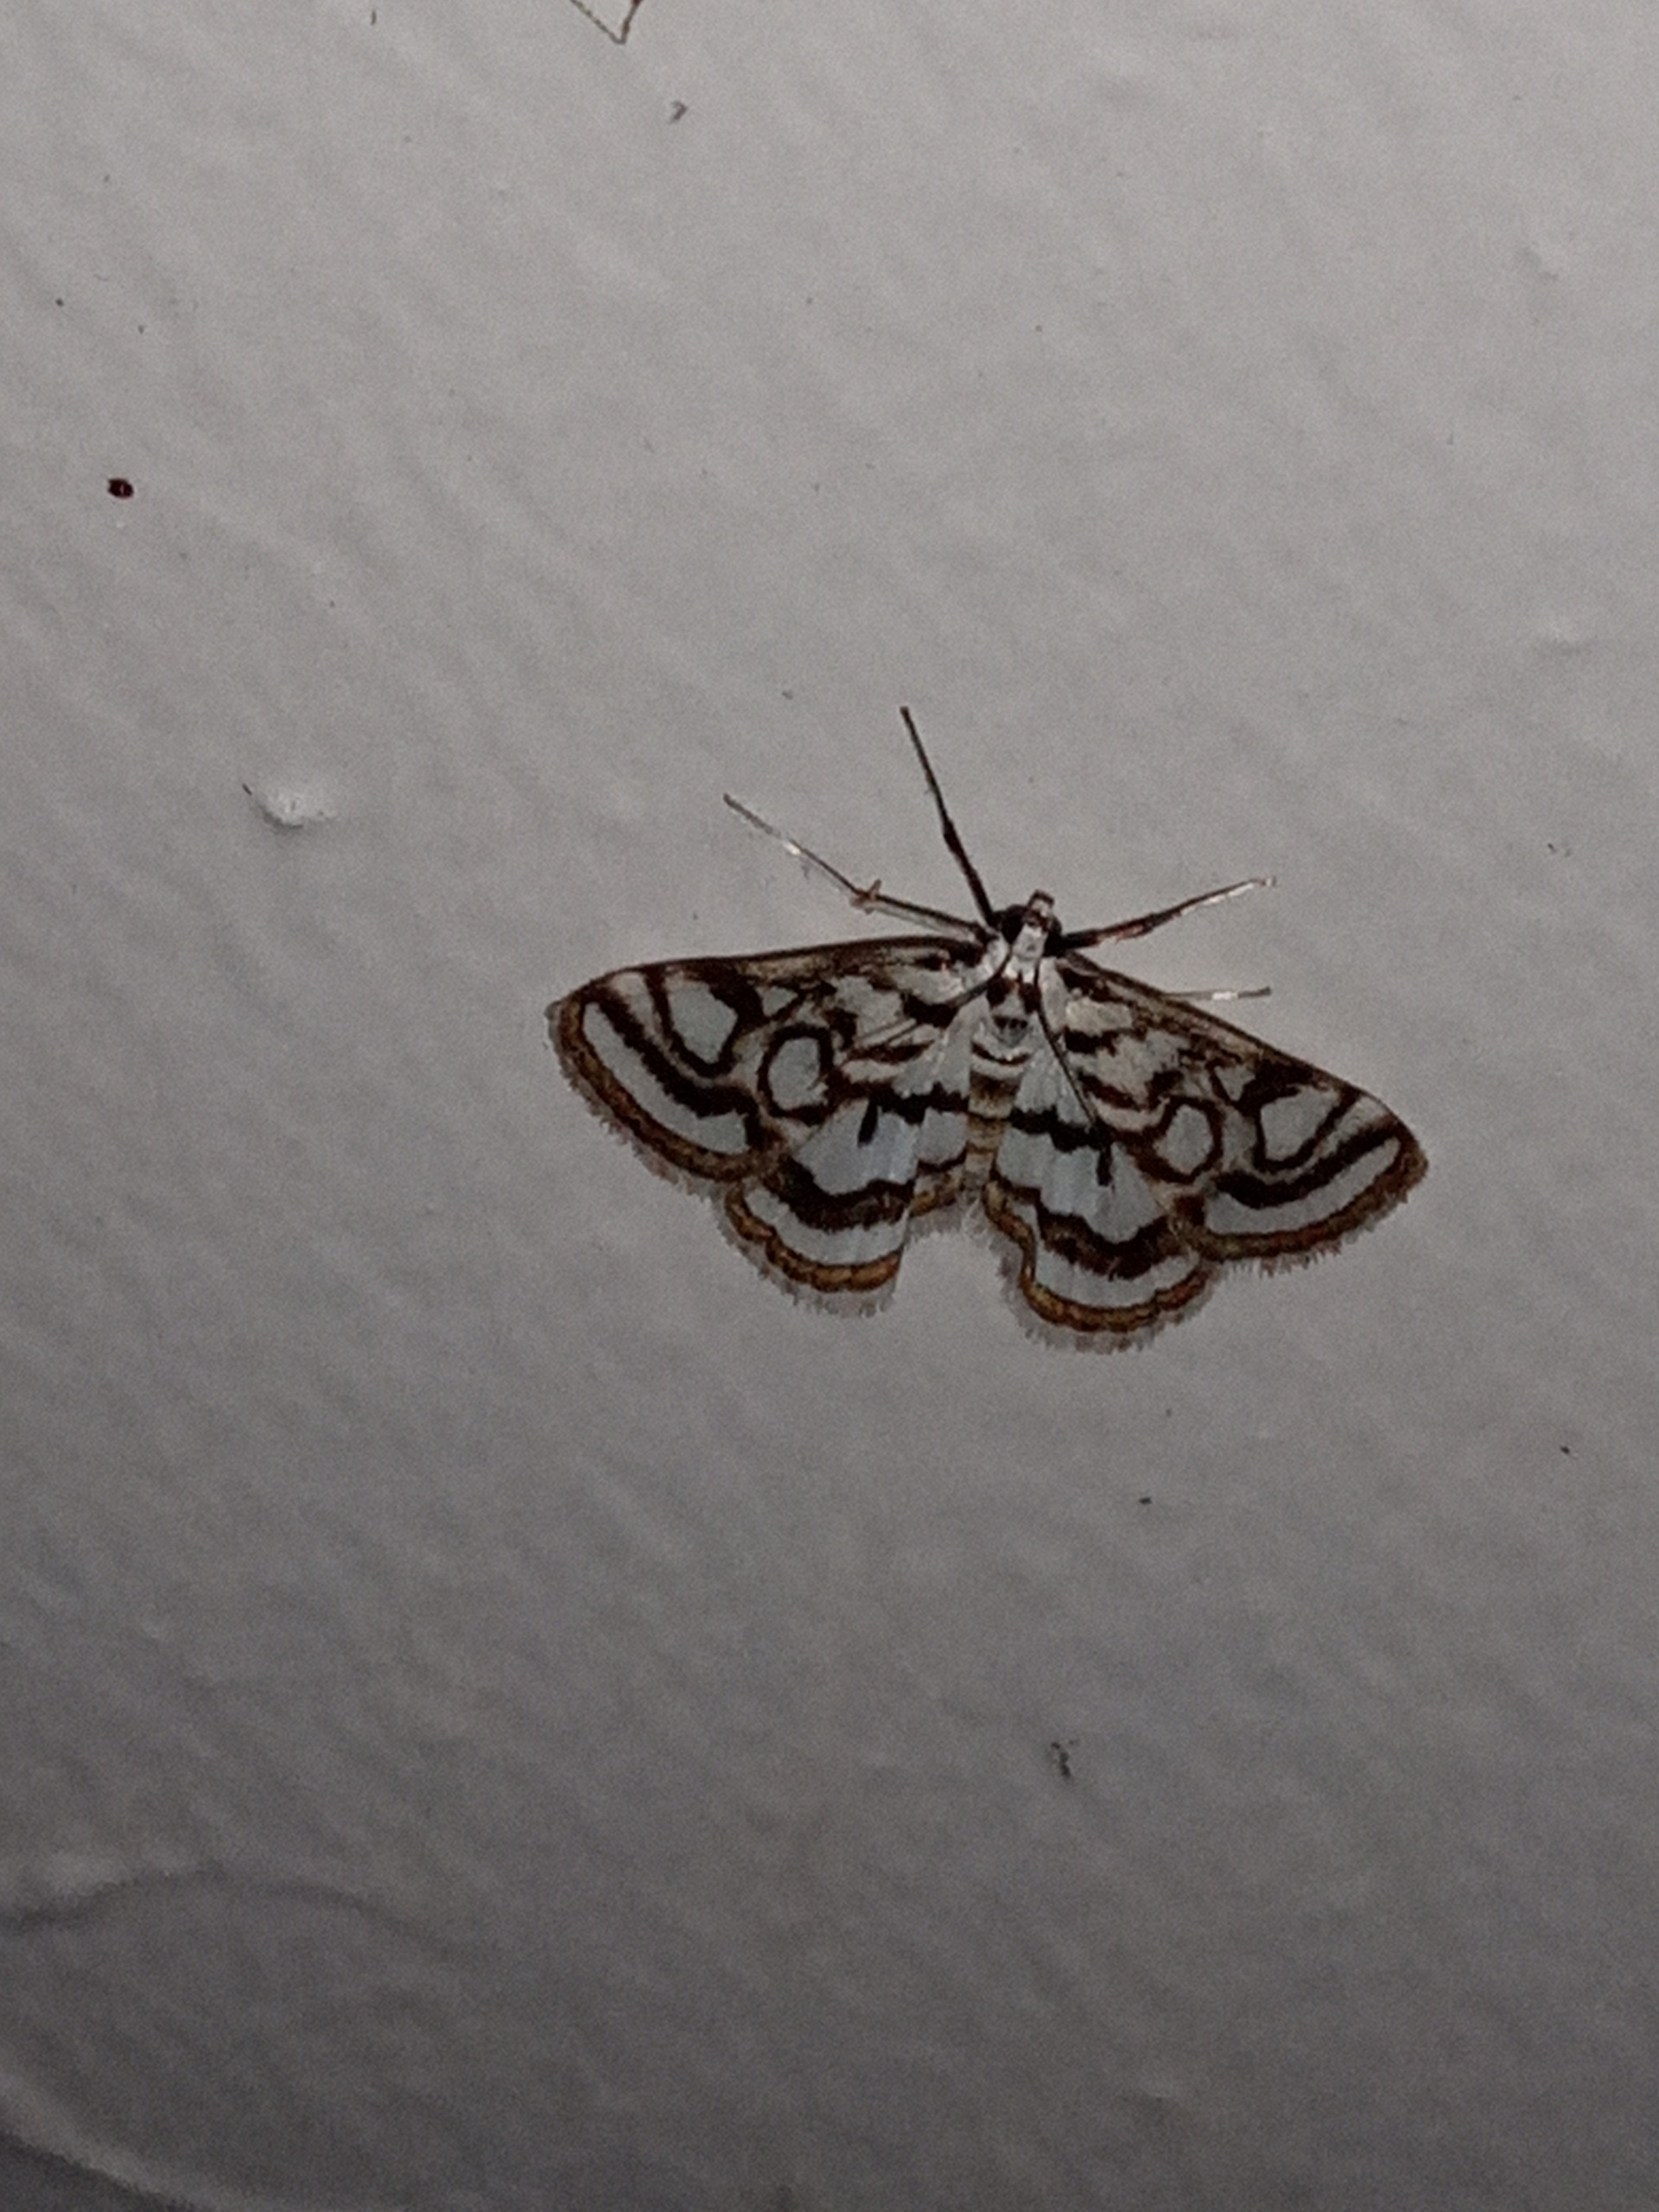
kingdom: Animalia
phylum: Arthropoda
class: Insecta
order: Lepidoptera
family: Crambidae
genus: Nymphula
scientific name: Nymphula nitidulata
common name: Lille porcelænsmøl
